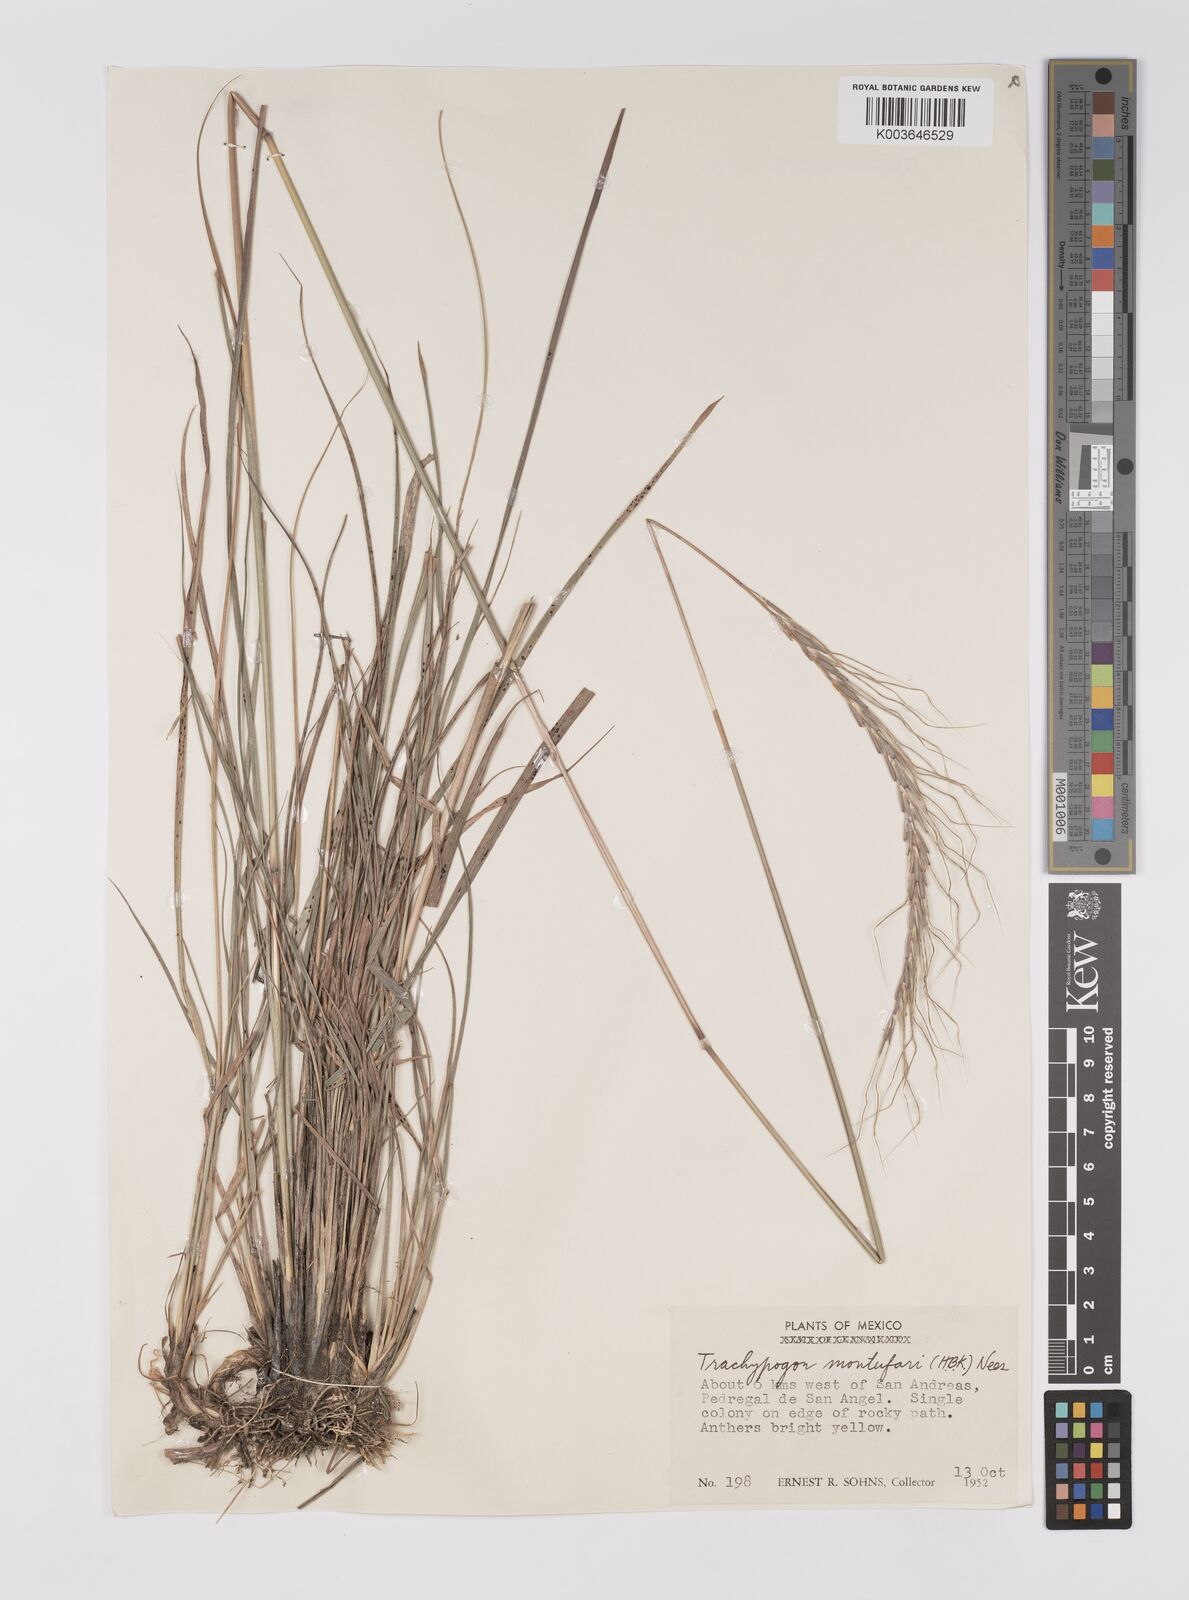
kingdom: Plantae
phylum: Tracheophyta
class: Liliopsida
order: Poales
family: Poaceae
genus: Trachypogon
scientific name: Trachypogon spicatus
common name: Crinkle-awn
